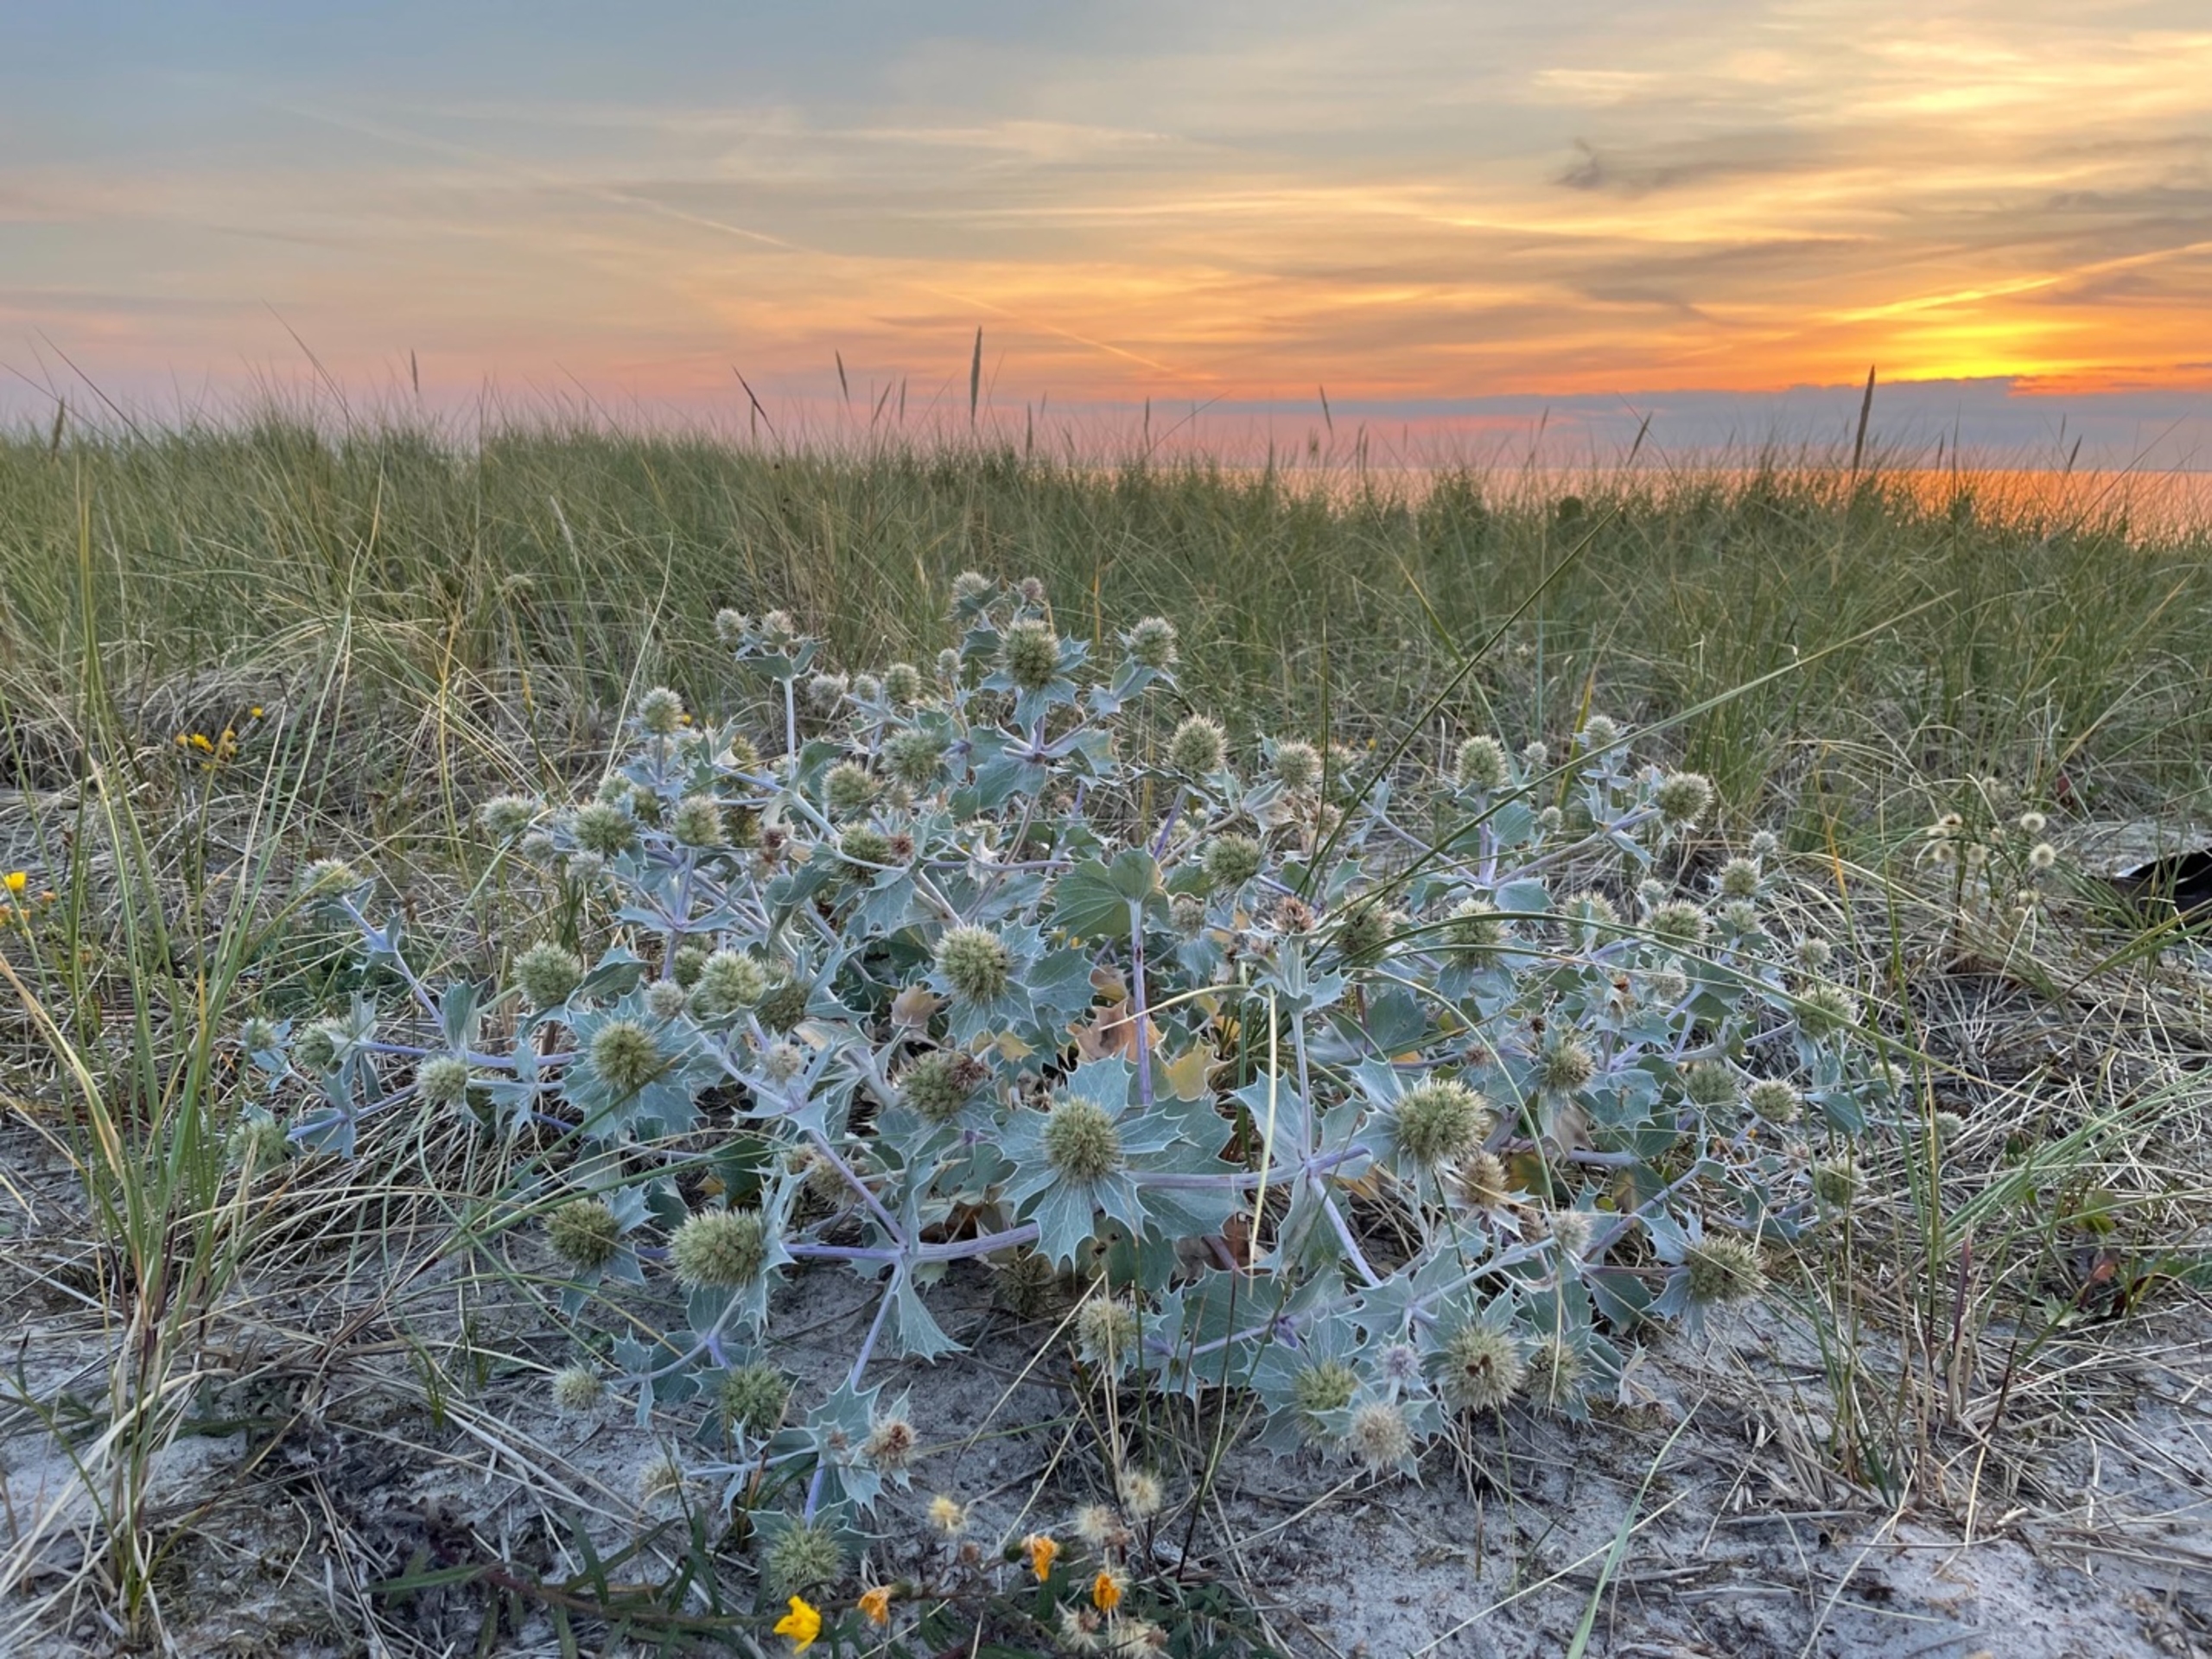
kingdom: Plantae
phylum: Tracheophyta
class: Magnoliopsida
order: Apiales
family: Apiaceae
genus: Eryngium
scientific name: Eryngium maritimum
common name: Strand-mandstro
